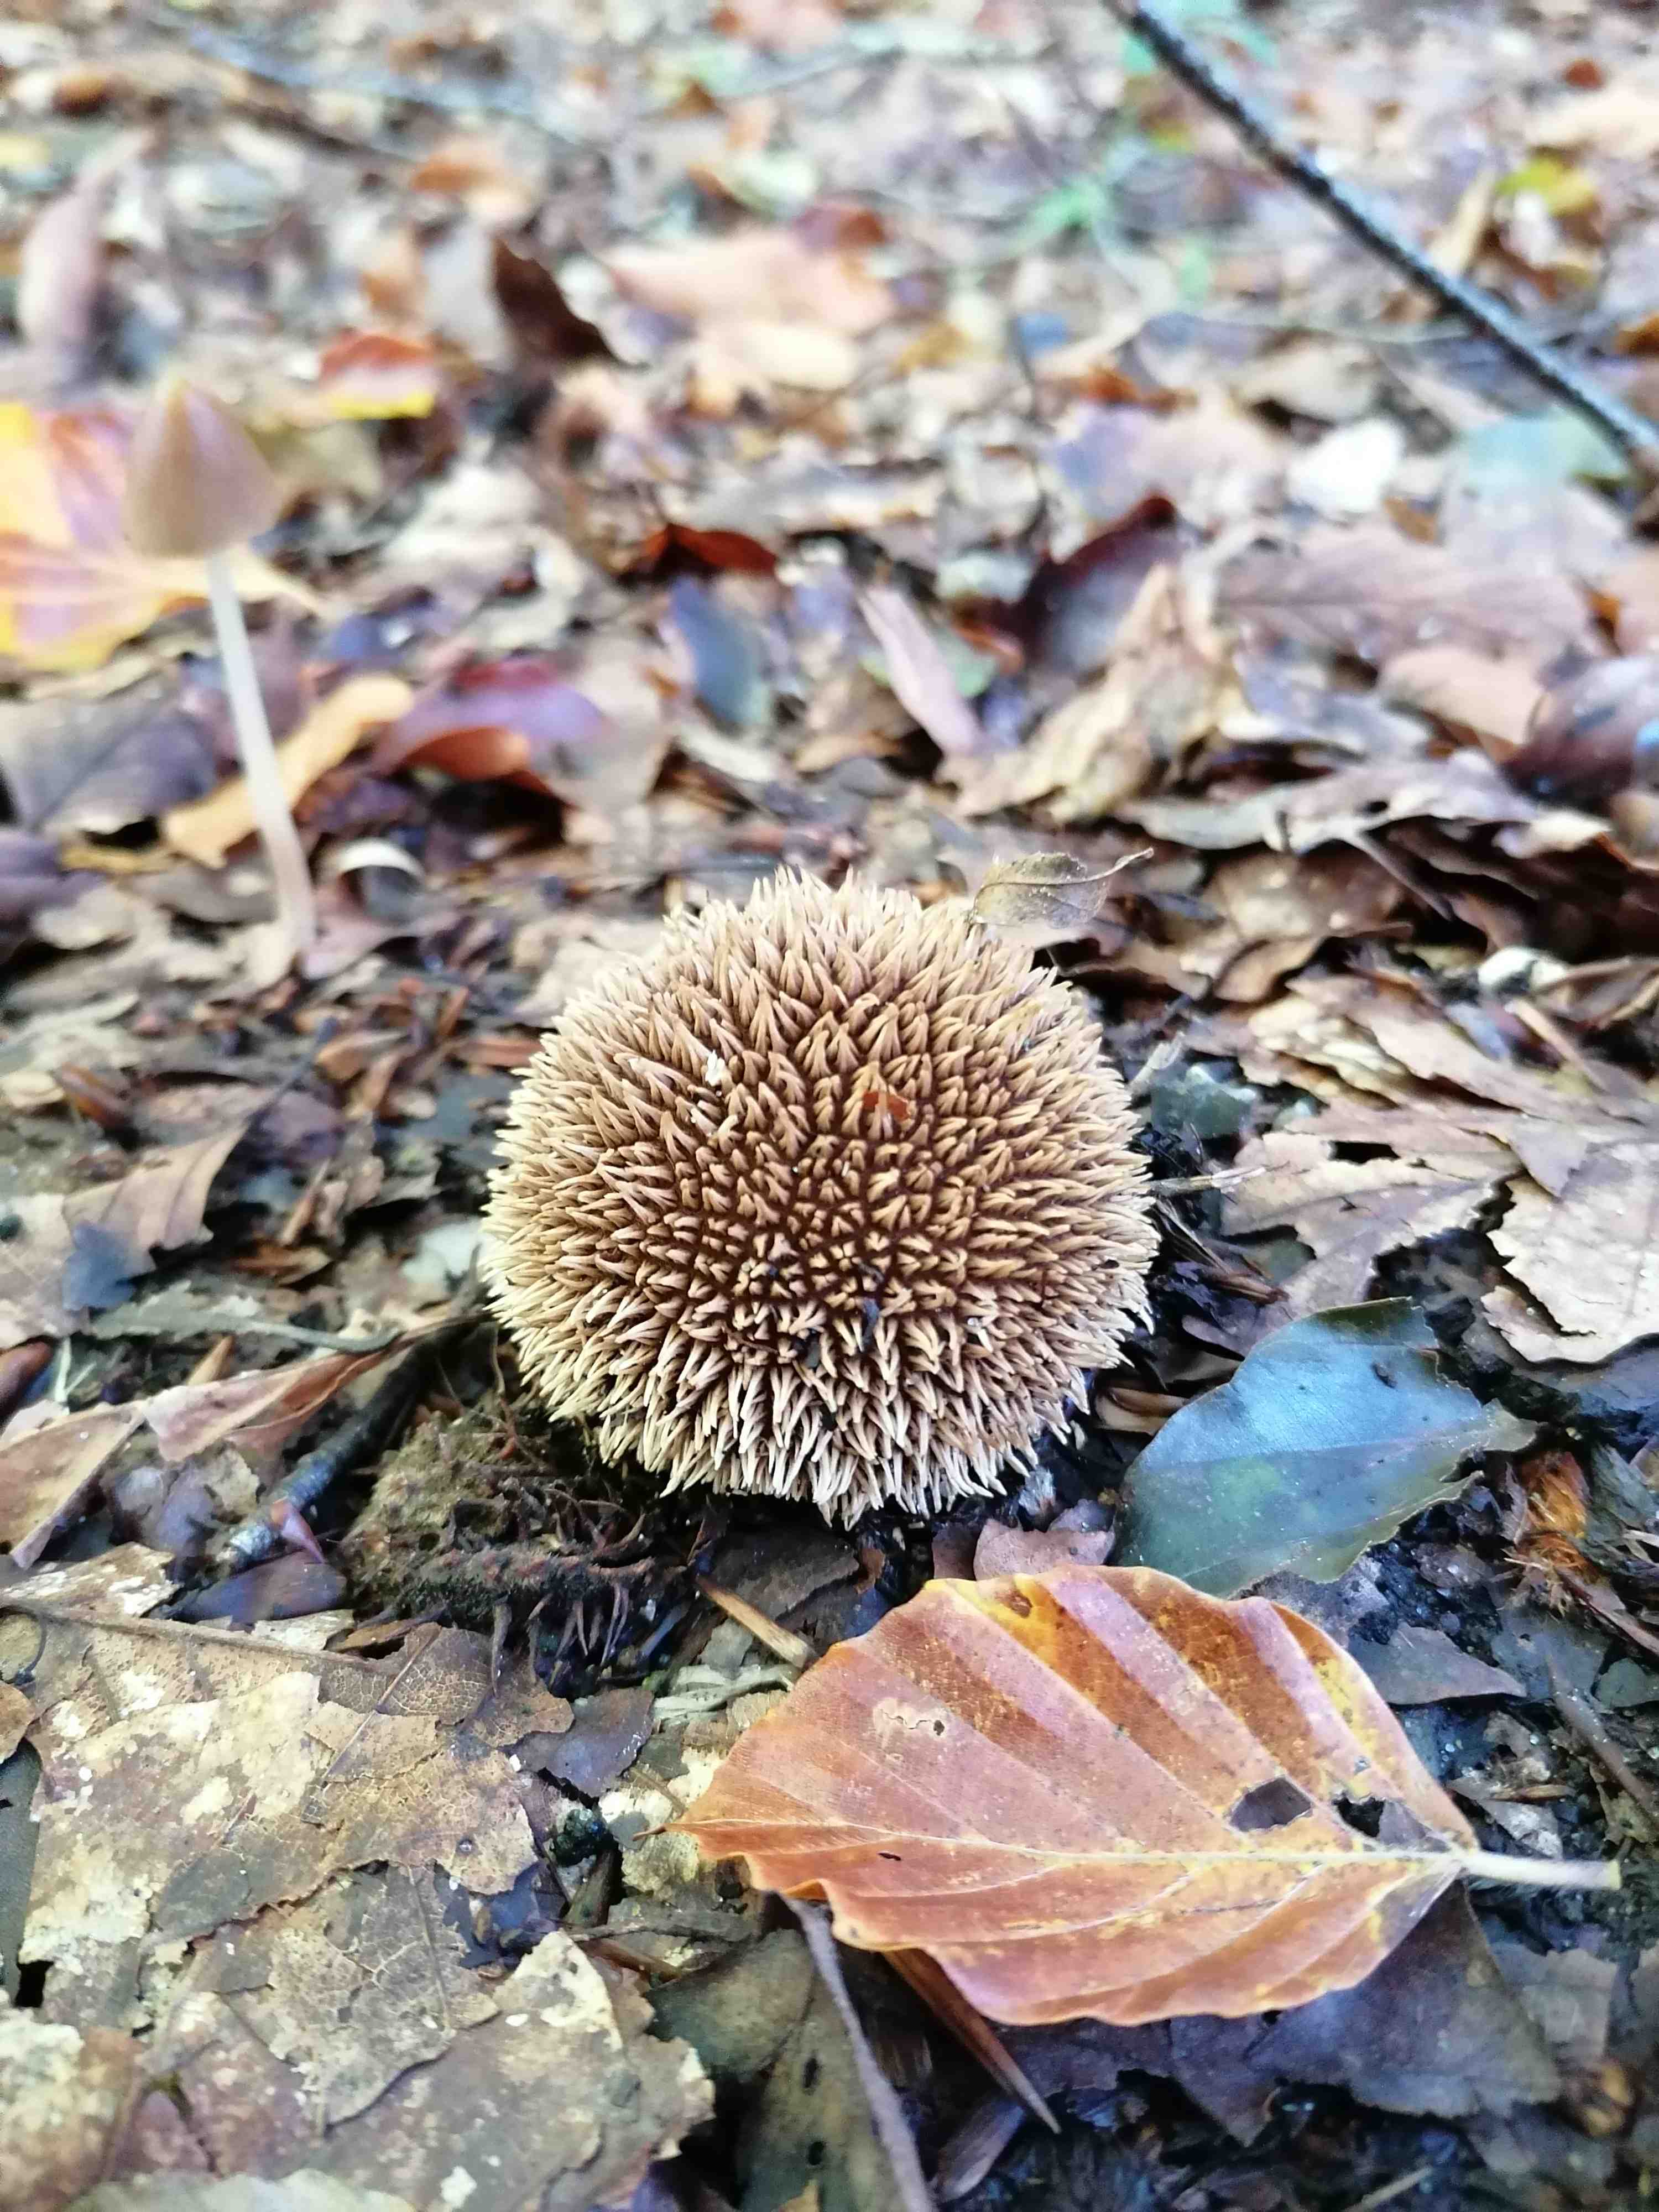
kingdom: Fungi
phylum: Basidiomycota
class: Agaricomycetes
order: Agaricales
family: Lycoperdaceae
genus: Lycoperdon
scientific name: Lycoperdon echinatum
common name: pindsvine-støvbold
